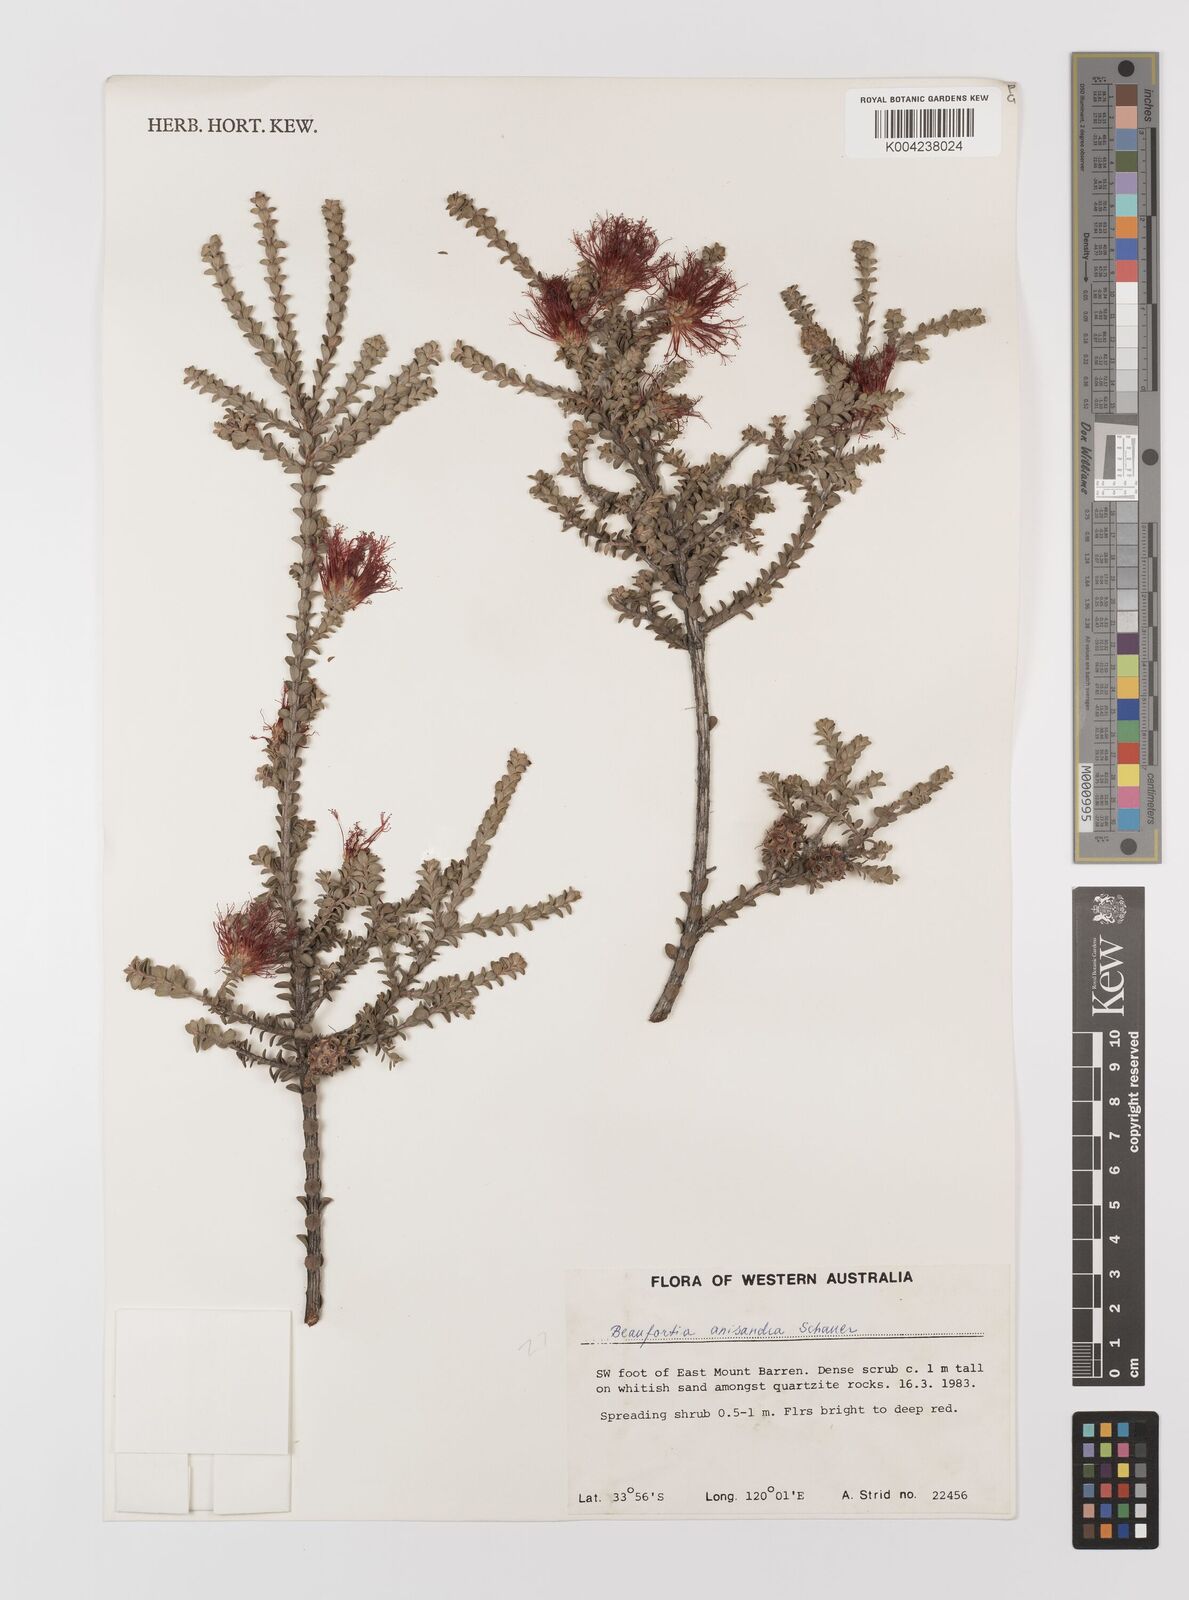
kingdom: Plantae
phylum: Tracheophyta
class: Magnoliopsida
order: Myrtales
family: Myrtaceae
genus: Melaleuca
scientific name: Melaleuca anisandra
